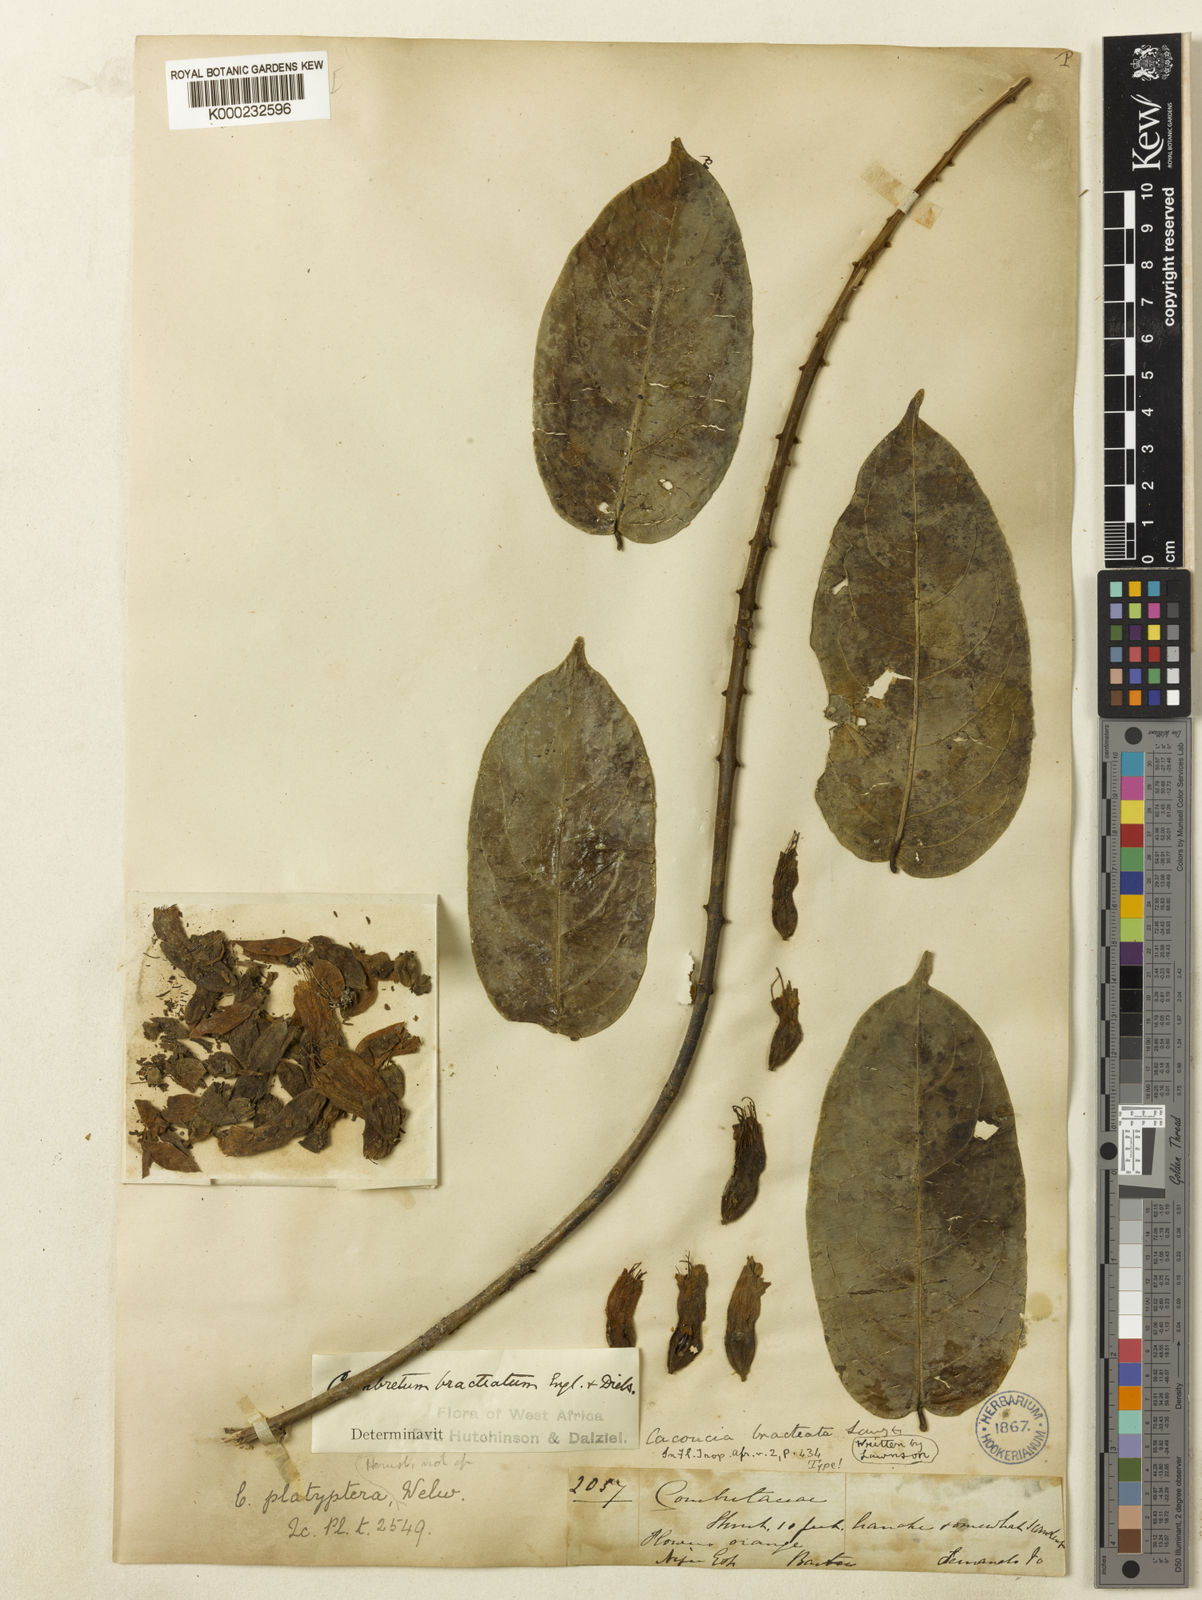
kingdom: Plantae
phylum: Tracheophyta
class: Magnoliopsida
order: Myrtales
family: Combretaceae
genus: Combretum
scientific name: Combretum bracteatum
